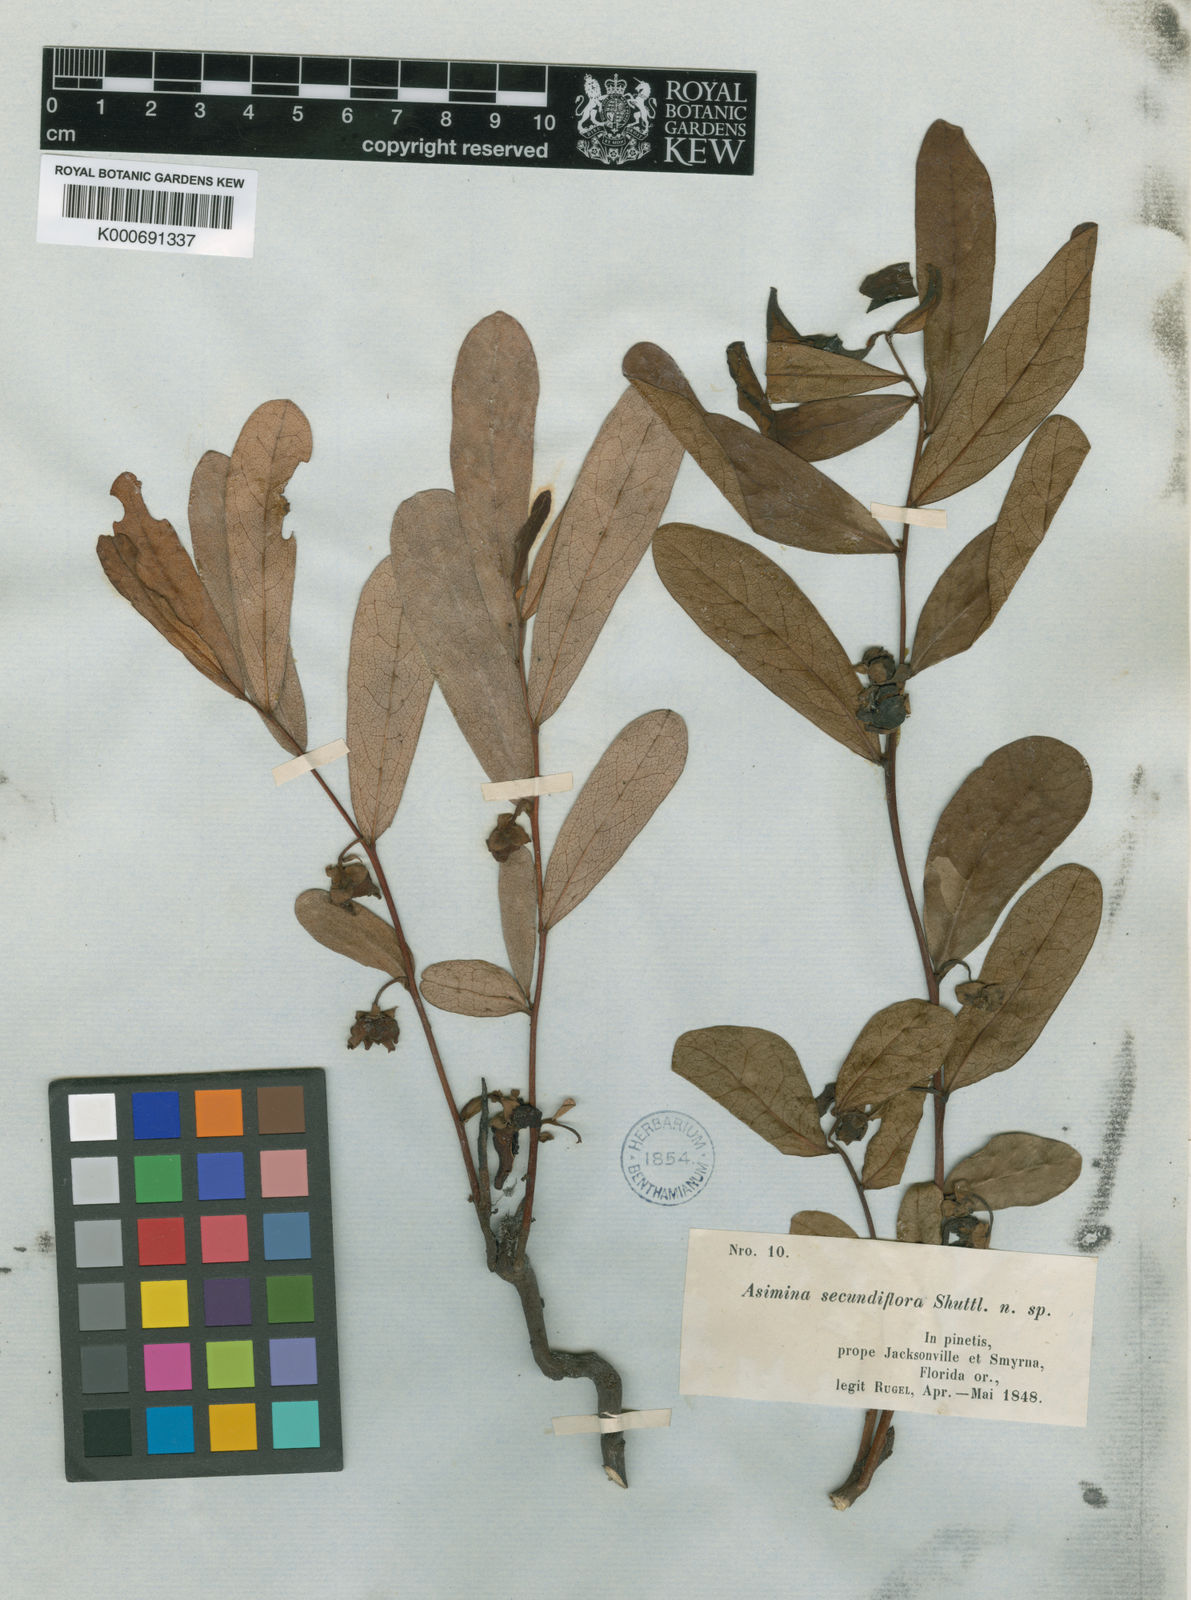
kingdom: Plantae
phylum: Tracheophyta
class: Magnoliopsida
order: Magnoliales
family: Annonaceae
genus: Asimina
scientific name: Asimina pygmaea
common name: Dwarf pawpaw
